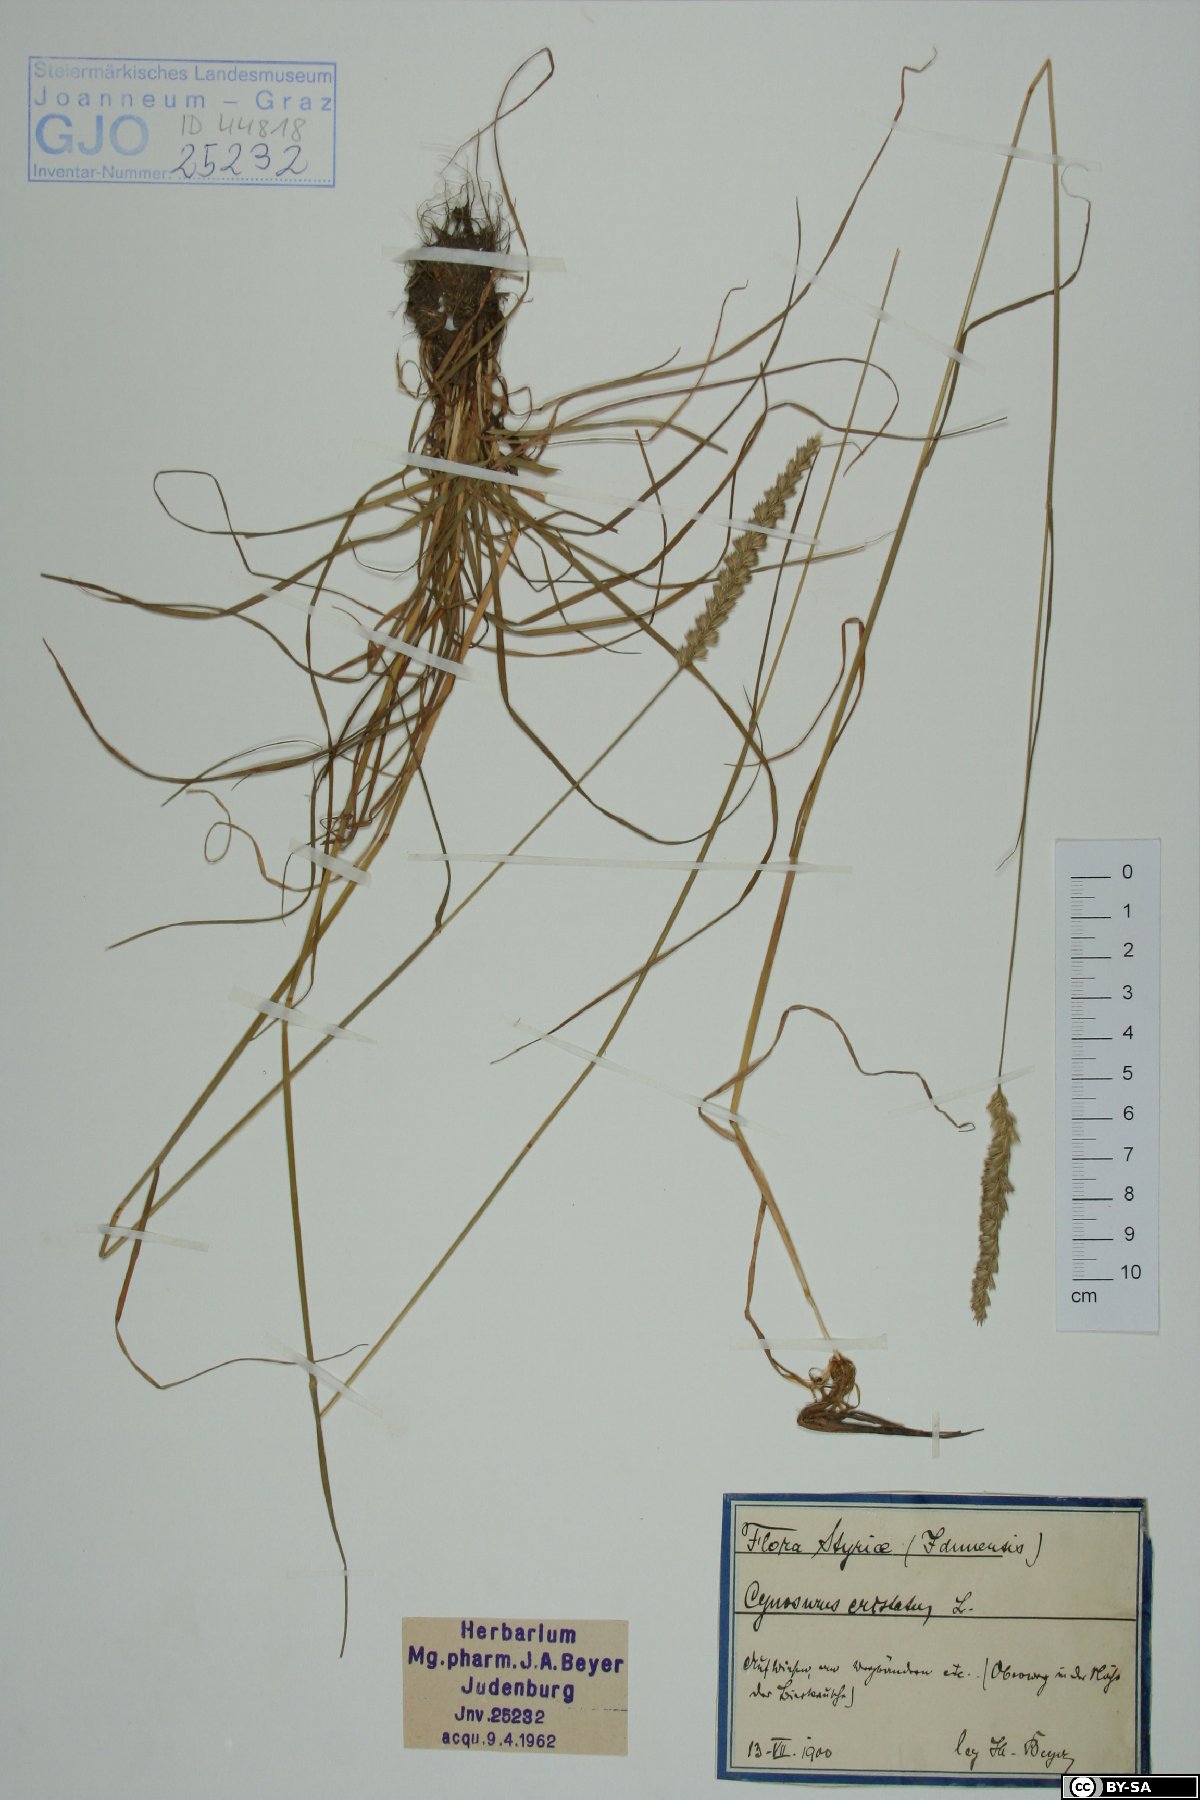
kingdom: Plantae
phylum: Tracheophyta
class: Liliopsida
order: Poales
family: Poaceae
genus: Cynosurus
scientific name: Cynosurus cristatus
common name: Crested dog's-tail
